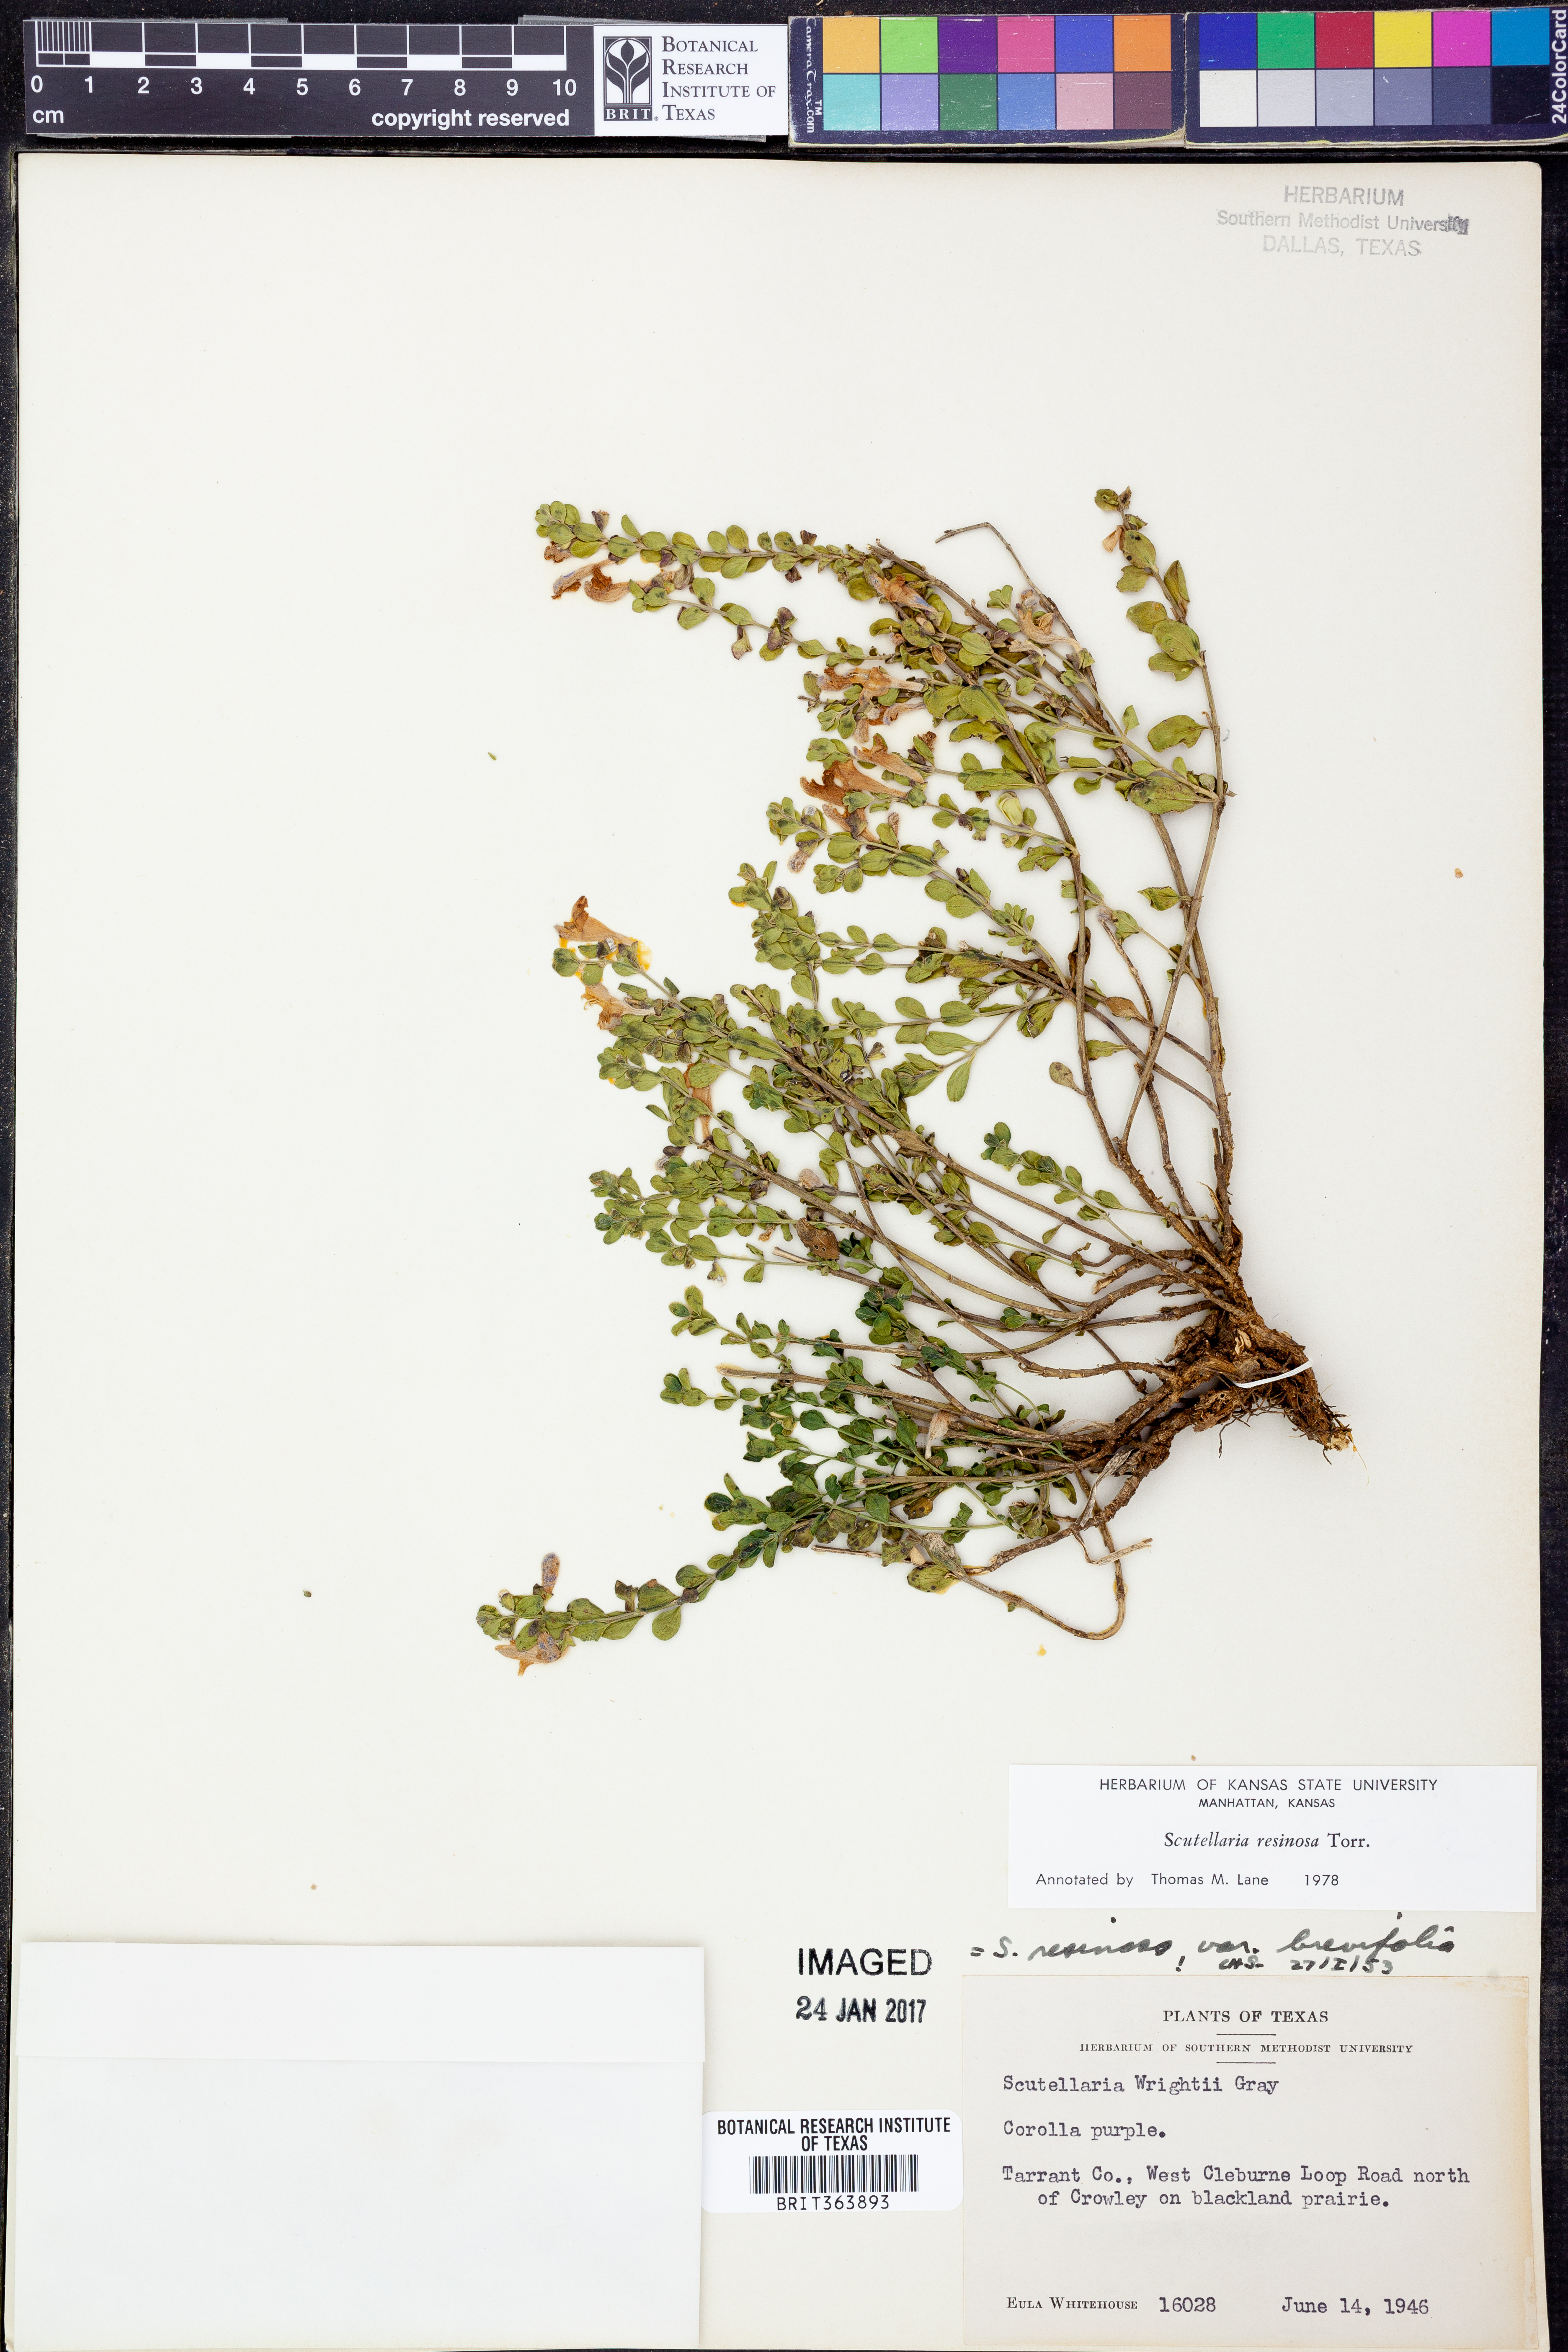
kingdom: Plantae
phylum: Tracheophyta
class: Magnoliopsida
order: Lamiales
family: Lamiaceae
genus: Scutellaria
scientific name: Scutellaria resinosa
